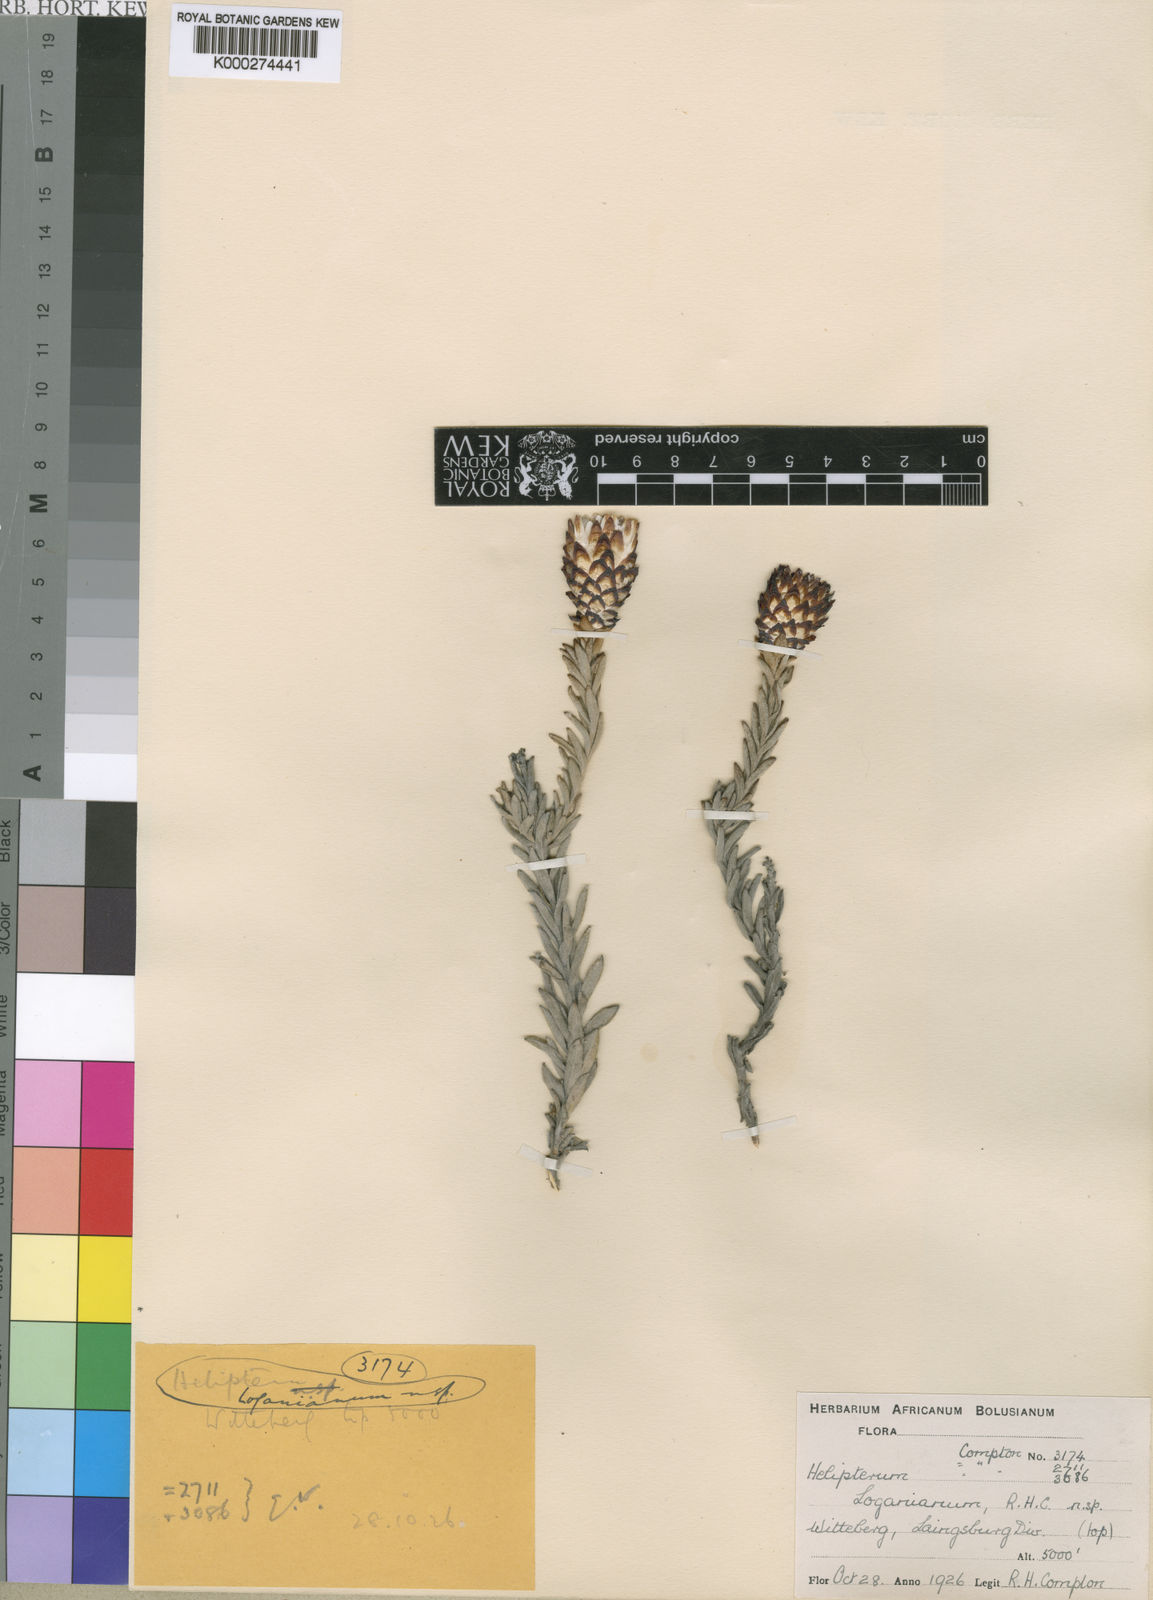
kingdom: Plantae
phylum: Tracheophyta
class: Magnoliopsida
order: Asterales
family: Asteraceae
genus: Syncarpha
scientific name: Syncarpha loganiana
